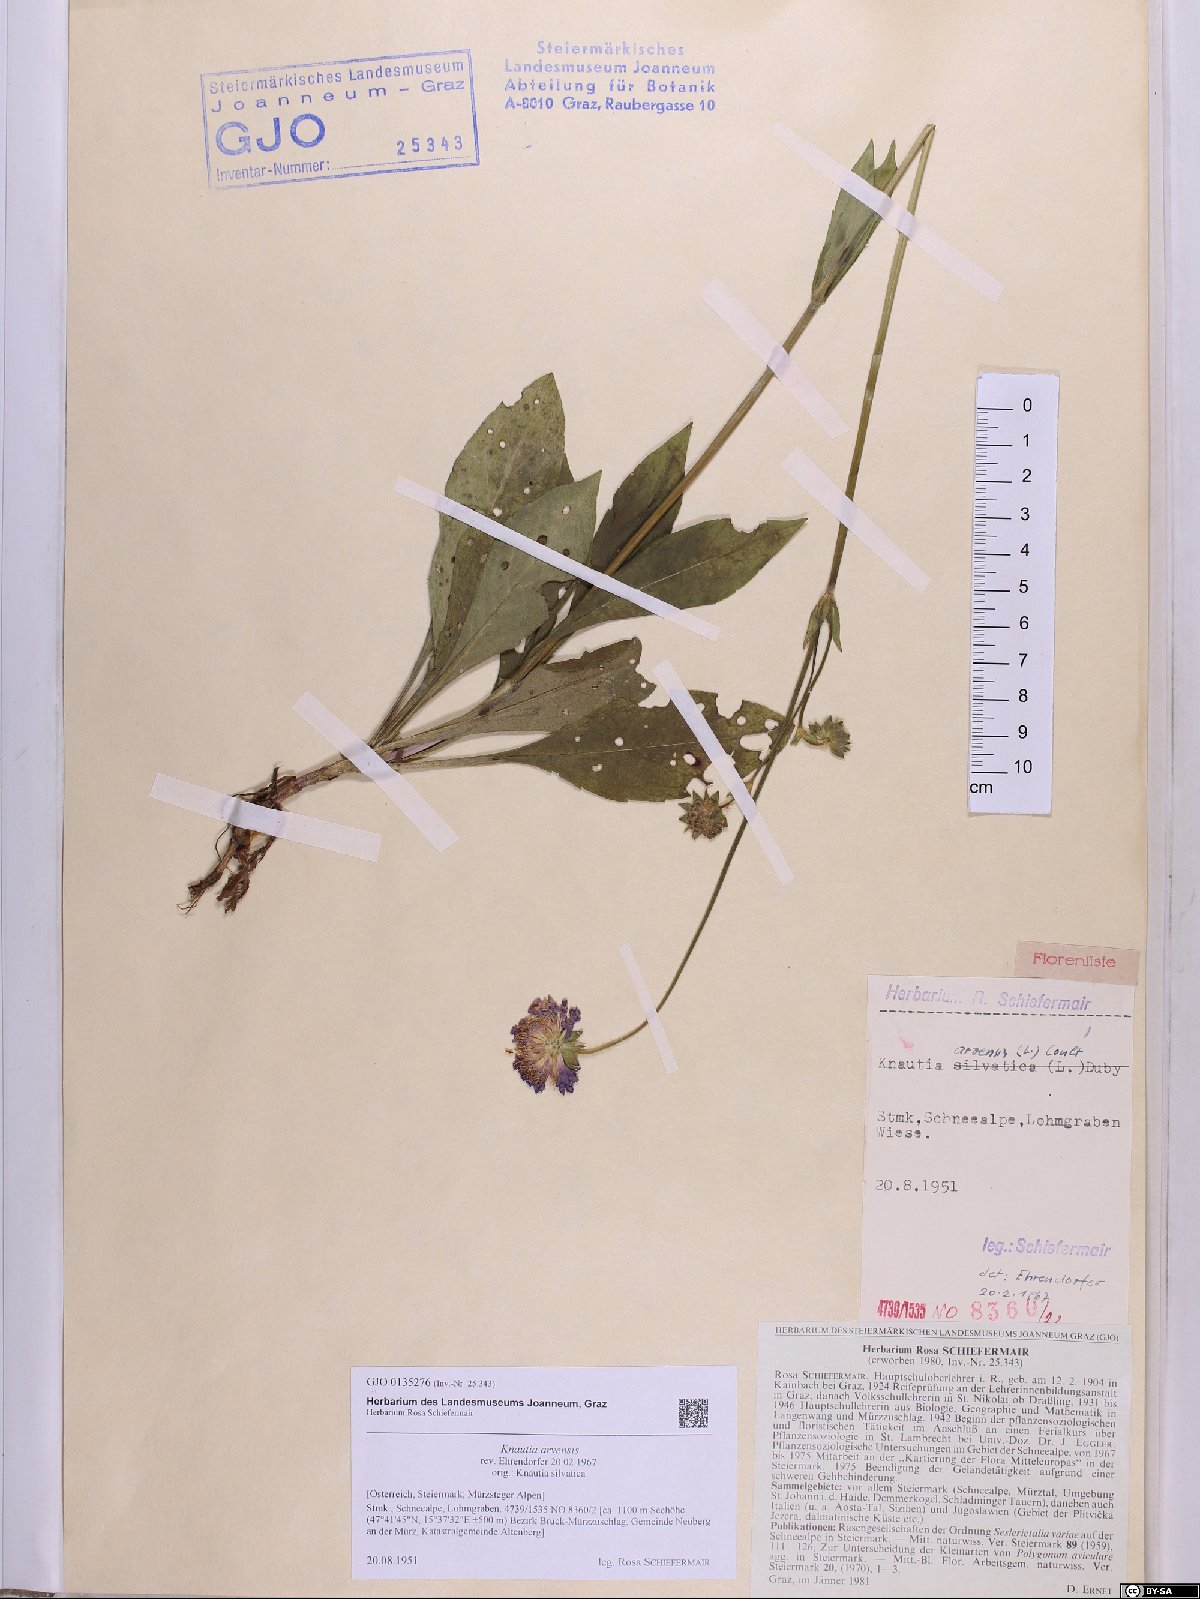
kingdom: Plantae
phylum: Tracheophyta
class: Magnoliopsida
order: Dipsacales
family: Caprifoliaceae
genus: Knautia
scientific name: Knautia arvensis
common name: Field scabiosa
